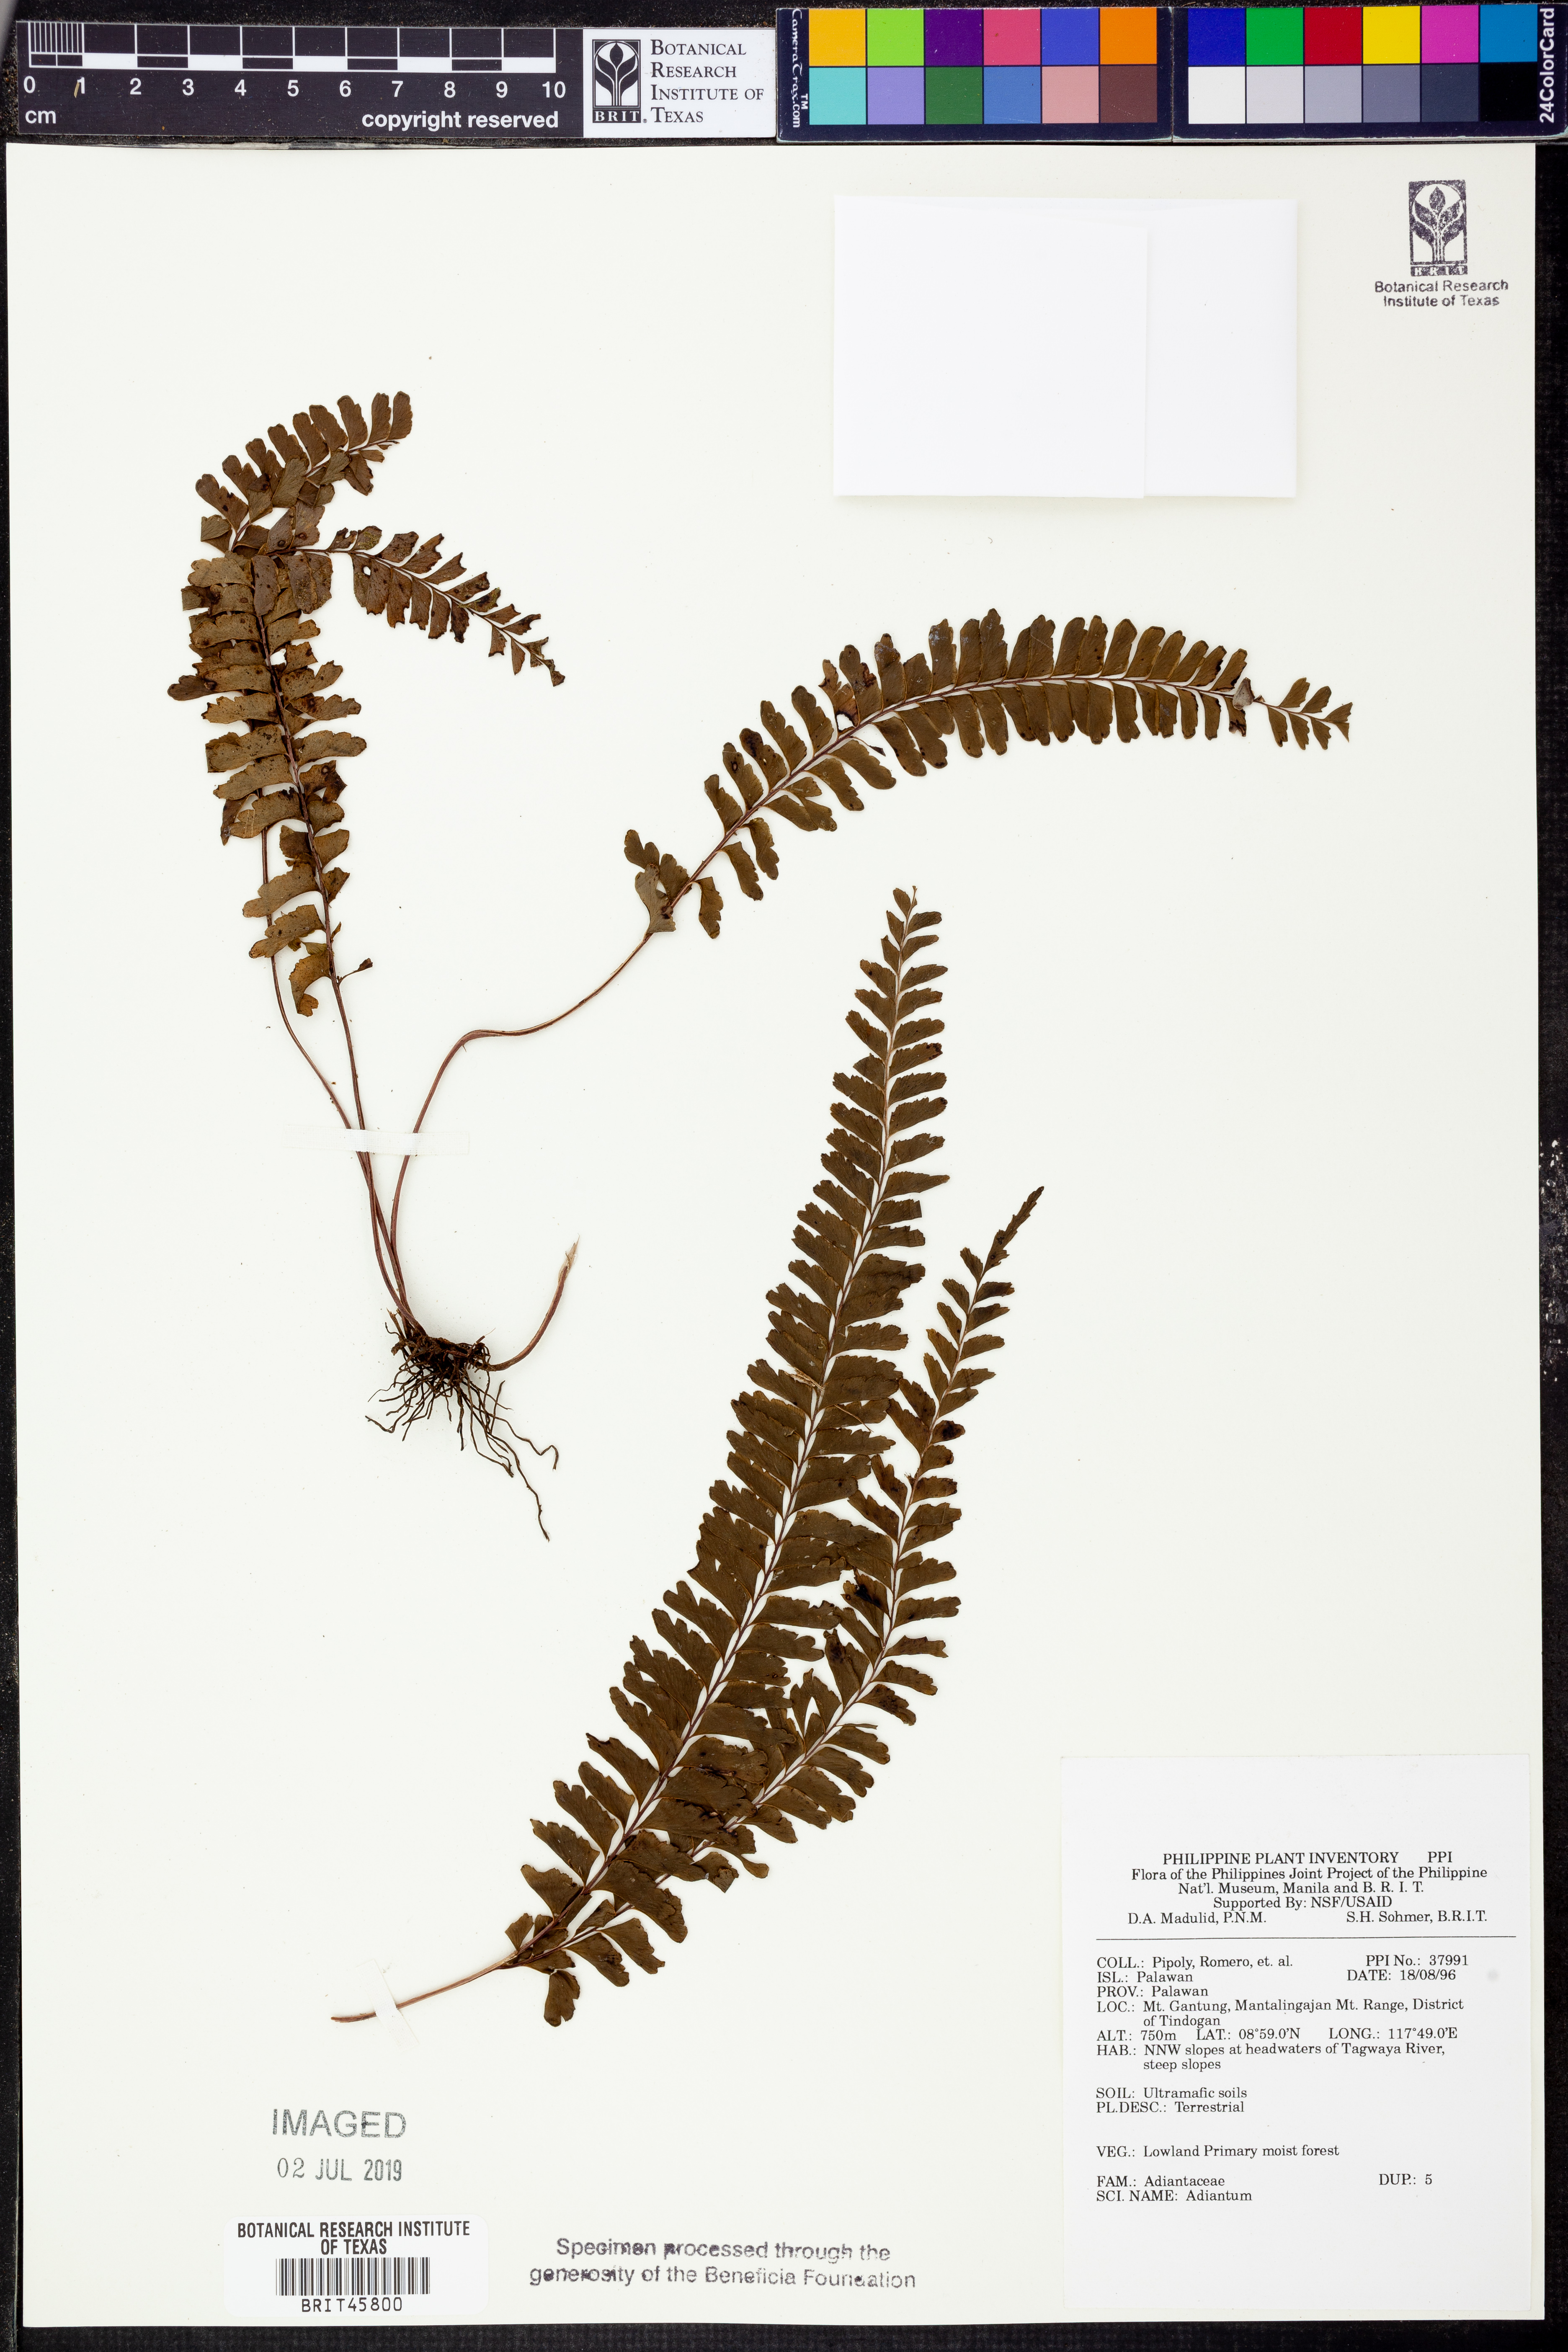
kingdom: Plantae
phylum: Tracheophyta
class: Polypodiopsida
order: Polypodiales
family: Pteridaceae
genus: Adiantum
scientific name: Adiantum
